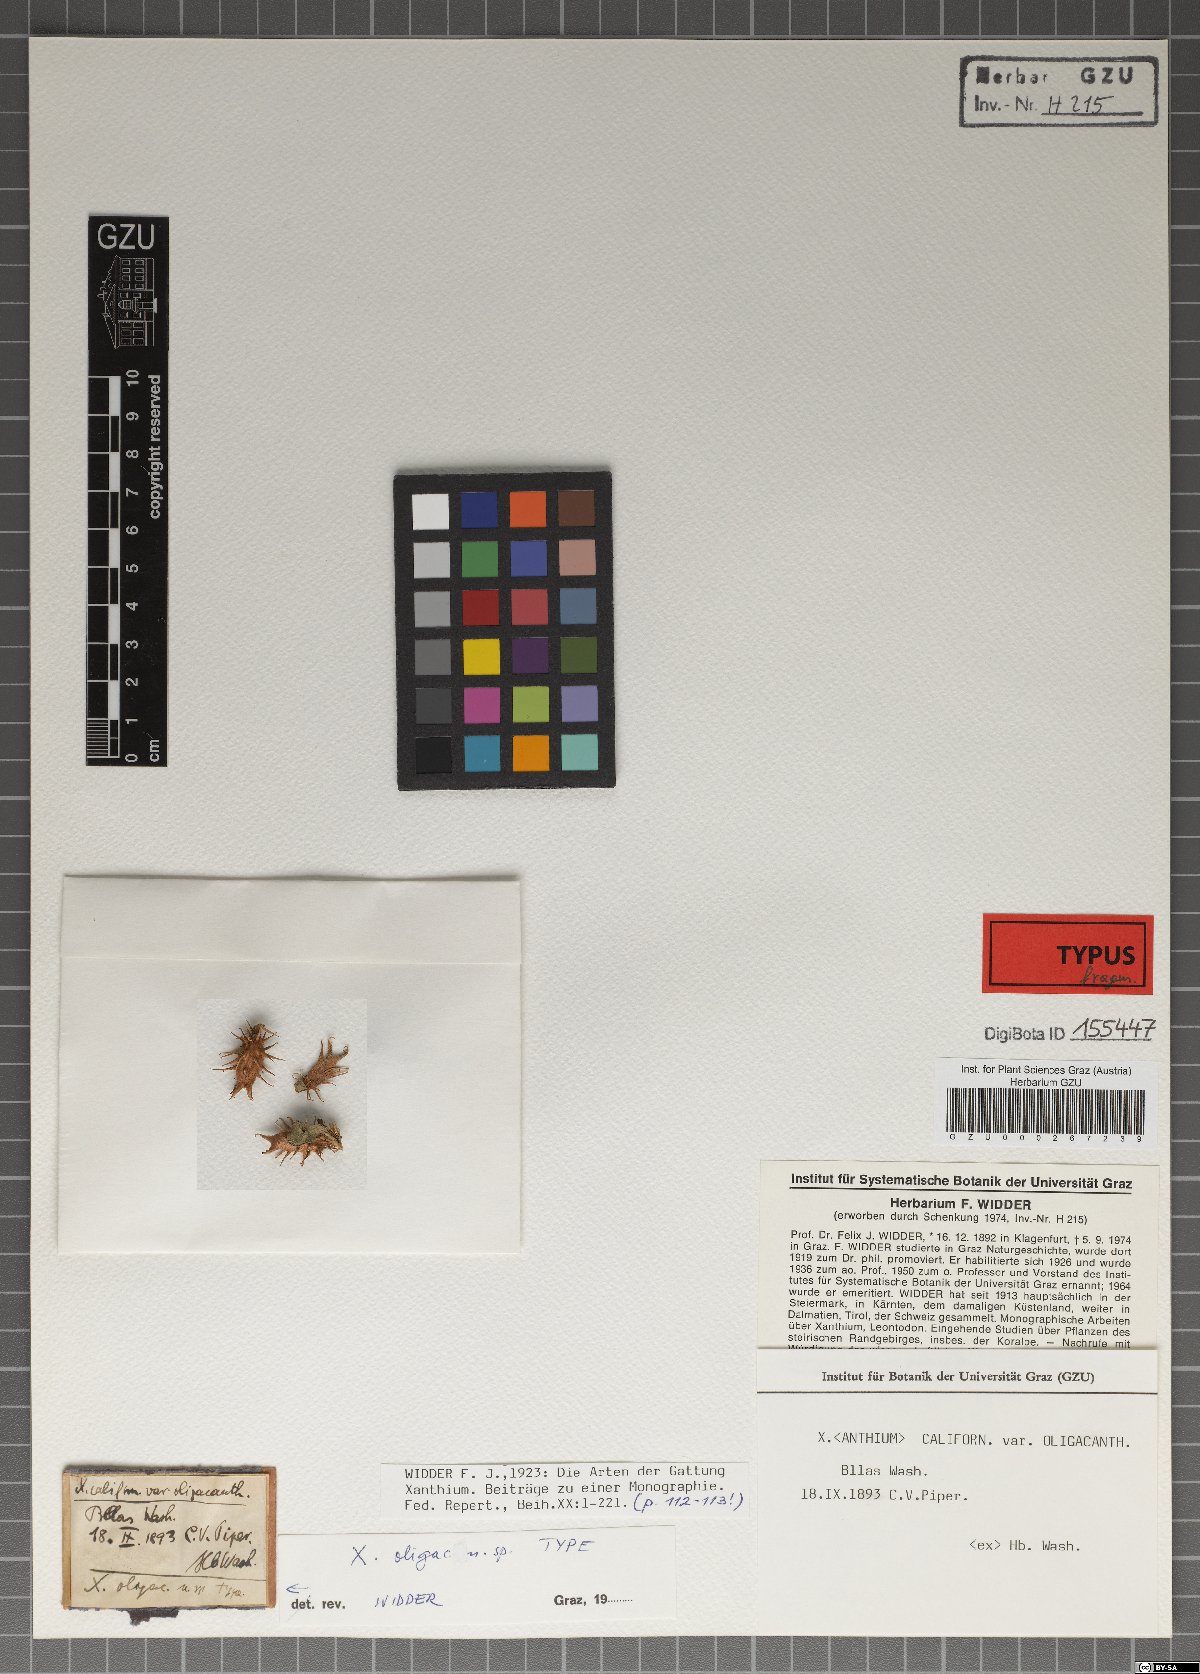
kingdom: Plantae
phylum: Tracheophyta
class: Magnoliopsida
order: Asterales
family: Asteraceae
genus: Xanthium
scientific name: Xanthium orientale
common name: Californian burr
